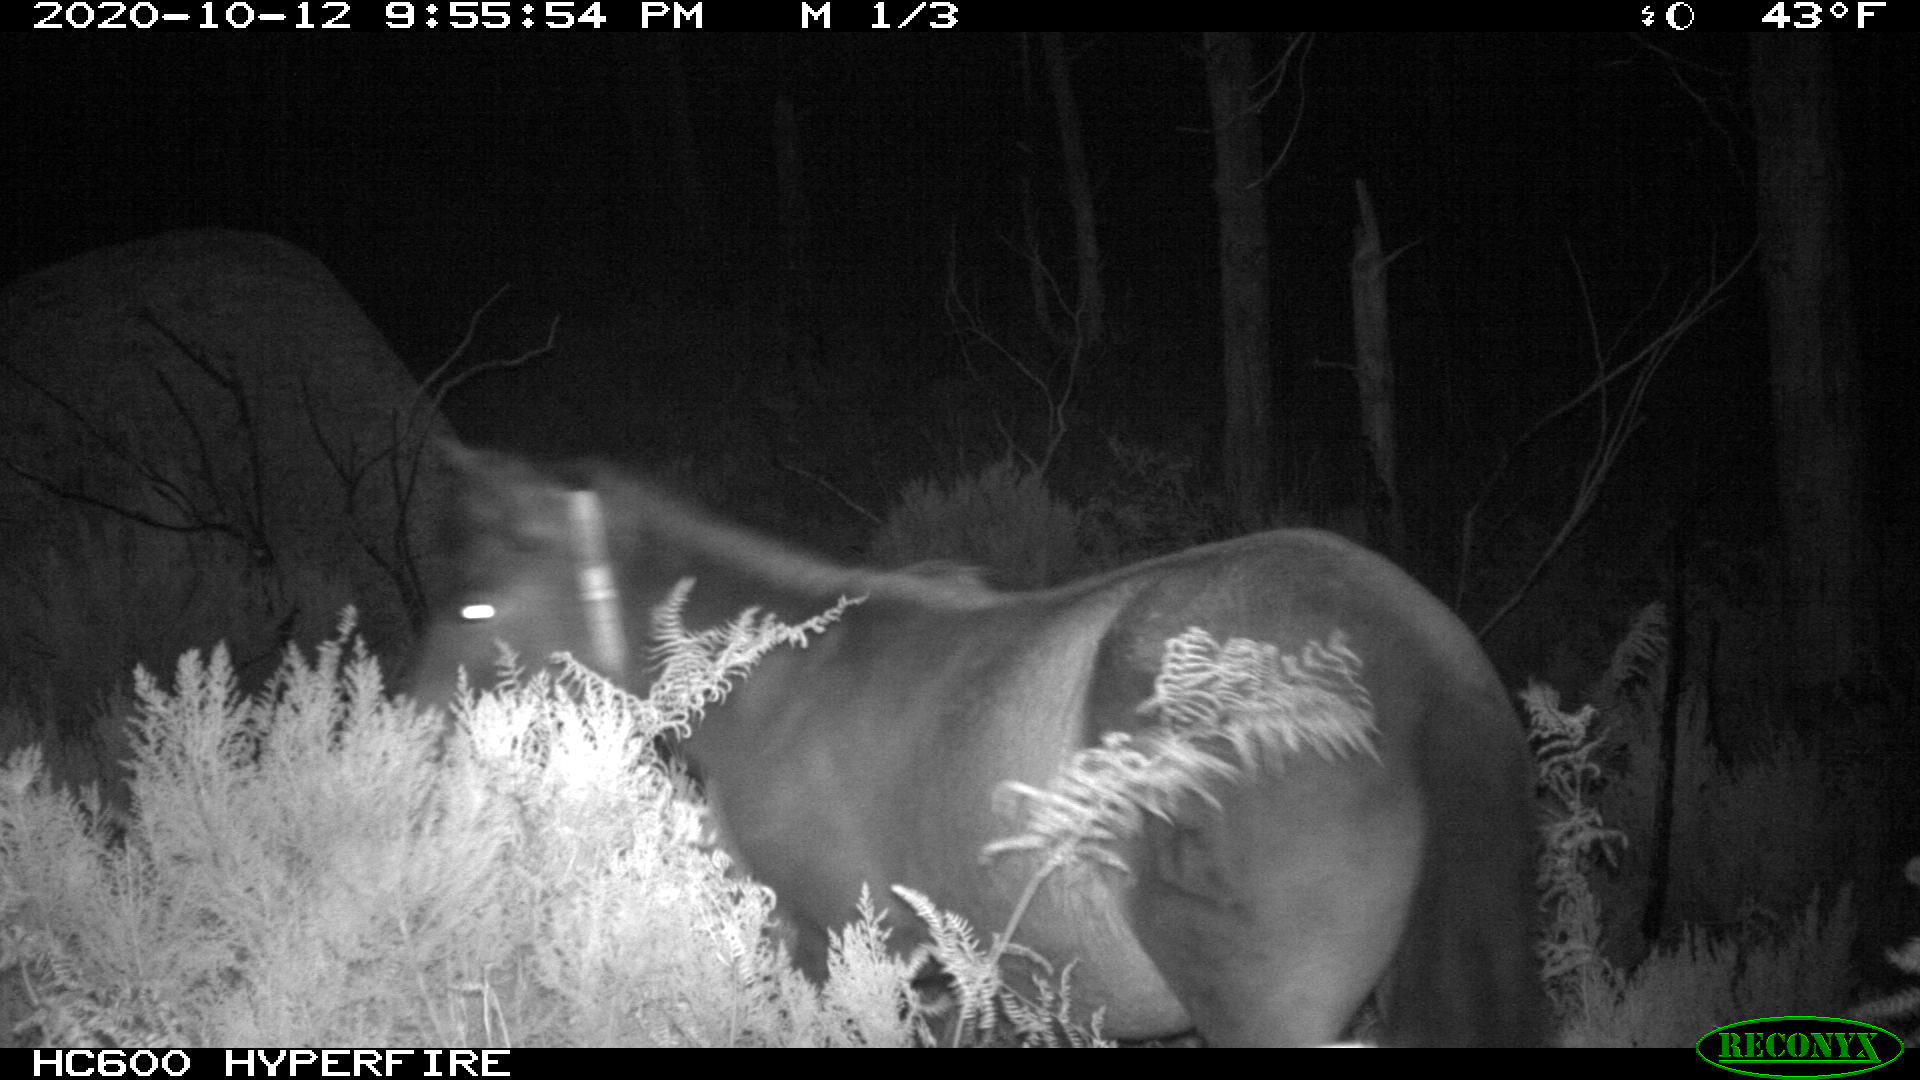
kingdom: Animalia
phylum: Chordata
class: Mammalia
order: Perissodactyla
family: Equidae
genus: Equus
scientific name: Equus caballus
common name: Horse
